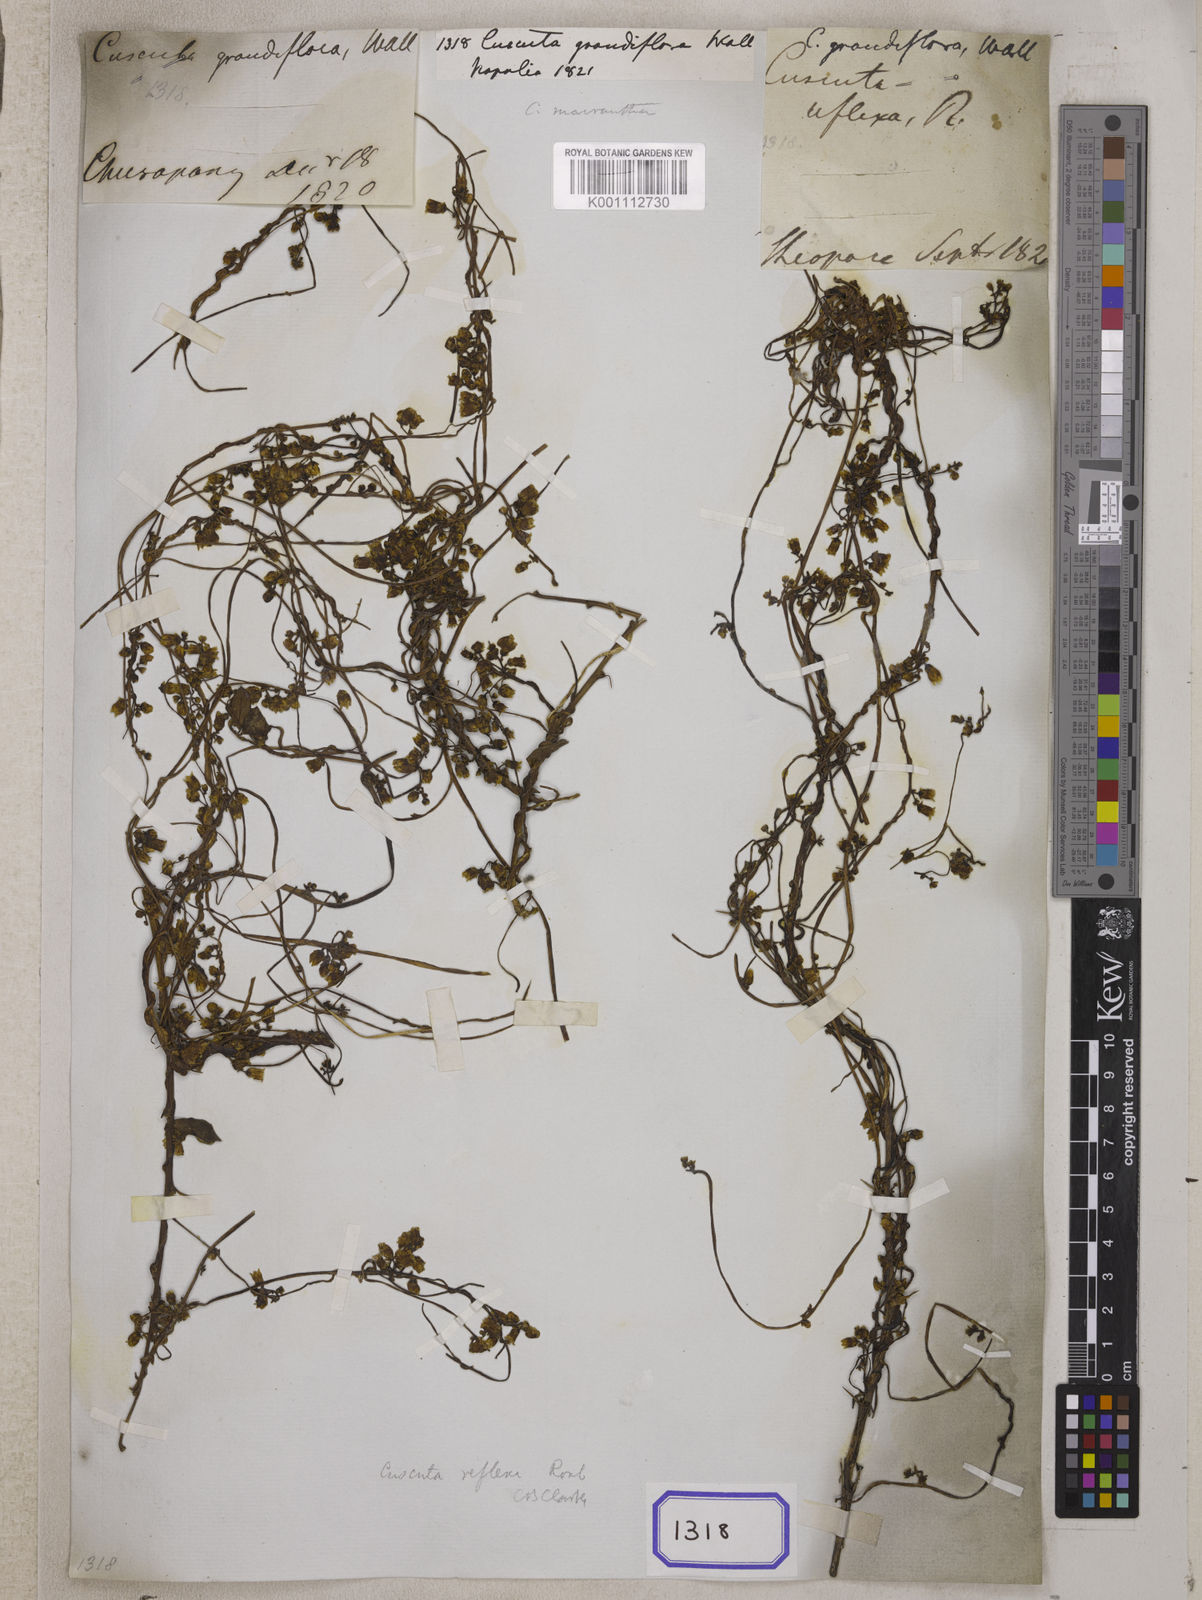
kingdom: Plantae
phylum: Tracheophyta
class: Magnoliopsida
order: Solanales
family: Convolvulaceae
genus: Cuscuta
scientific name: Cuscuta
